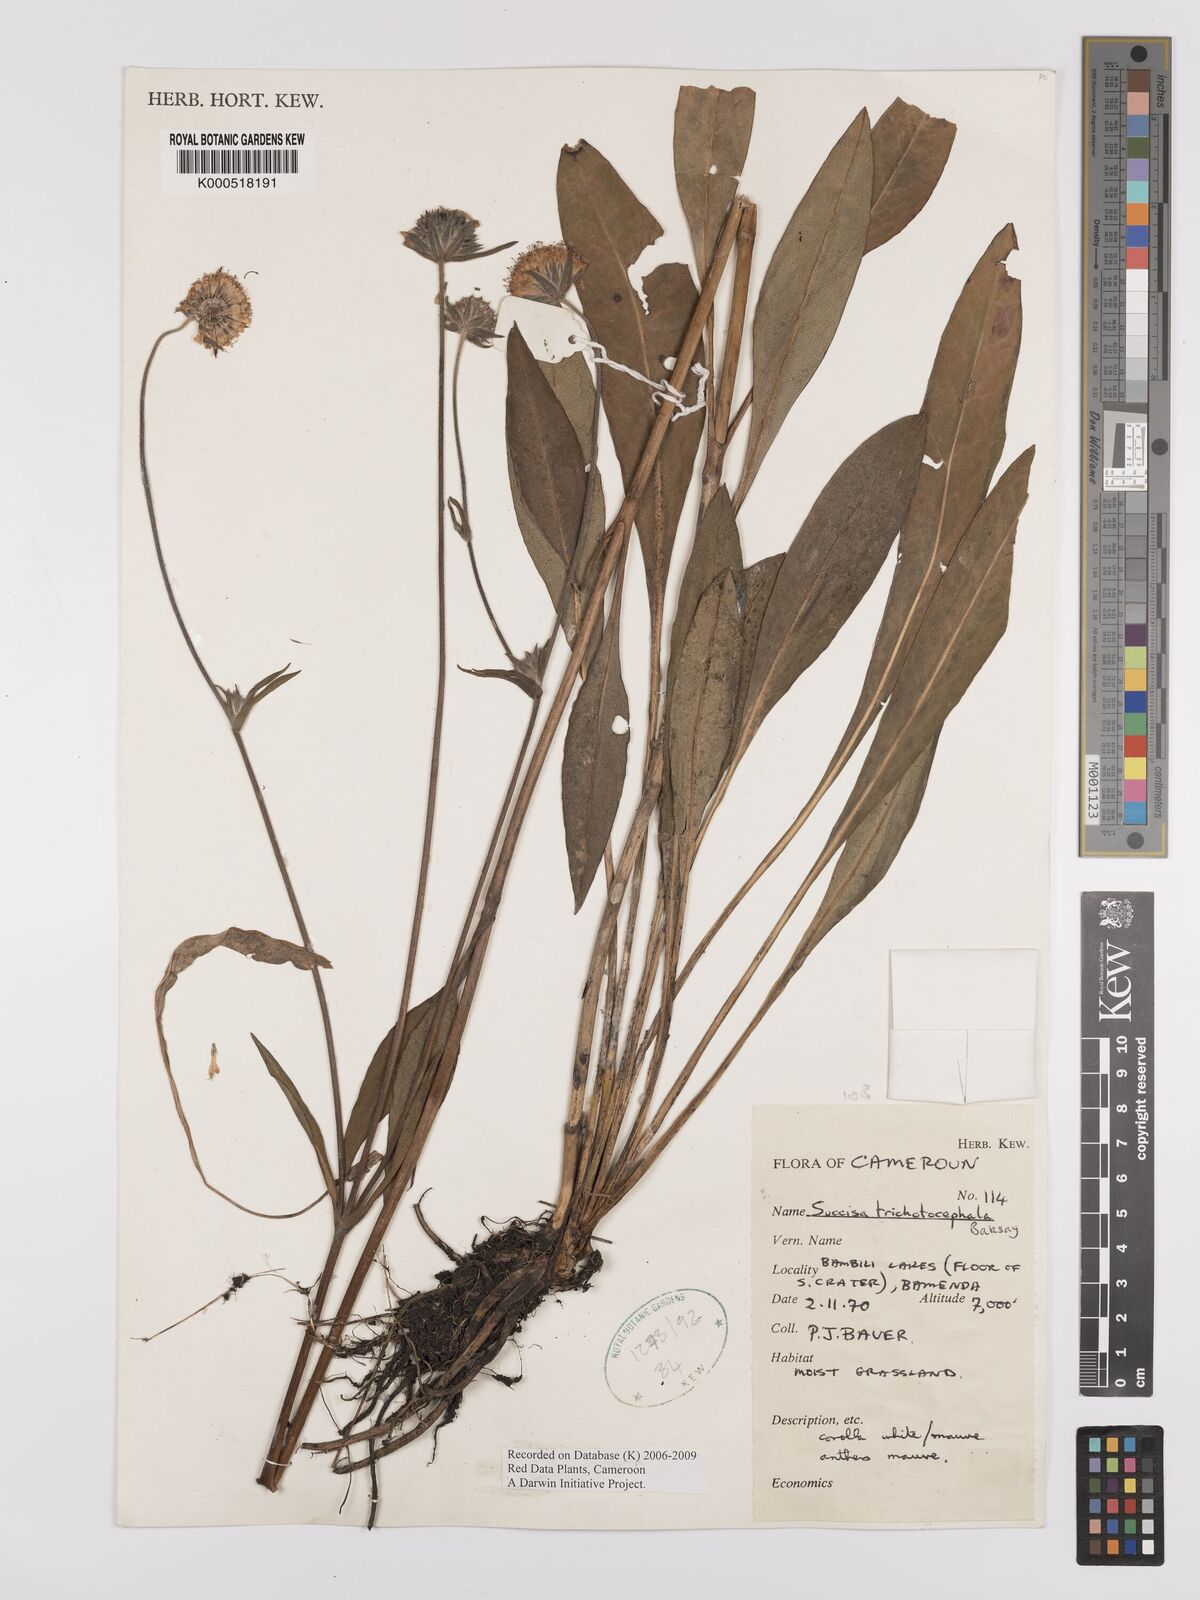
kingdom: Plantae
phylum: Tracheophyta
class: Magnoliopsida
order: Dipsacales
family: Caprifoliaceae
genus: Succisa
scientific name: Succisa trichotocephala
